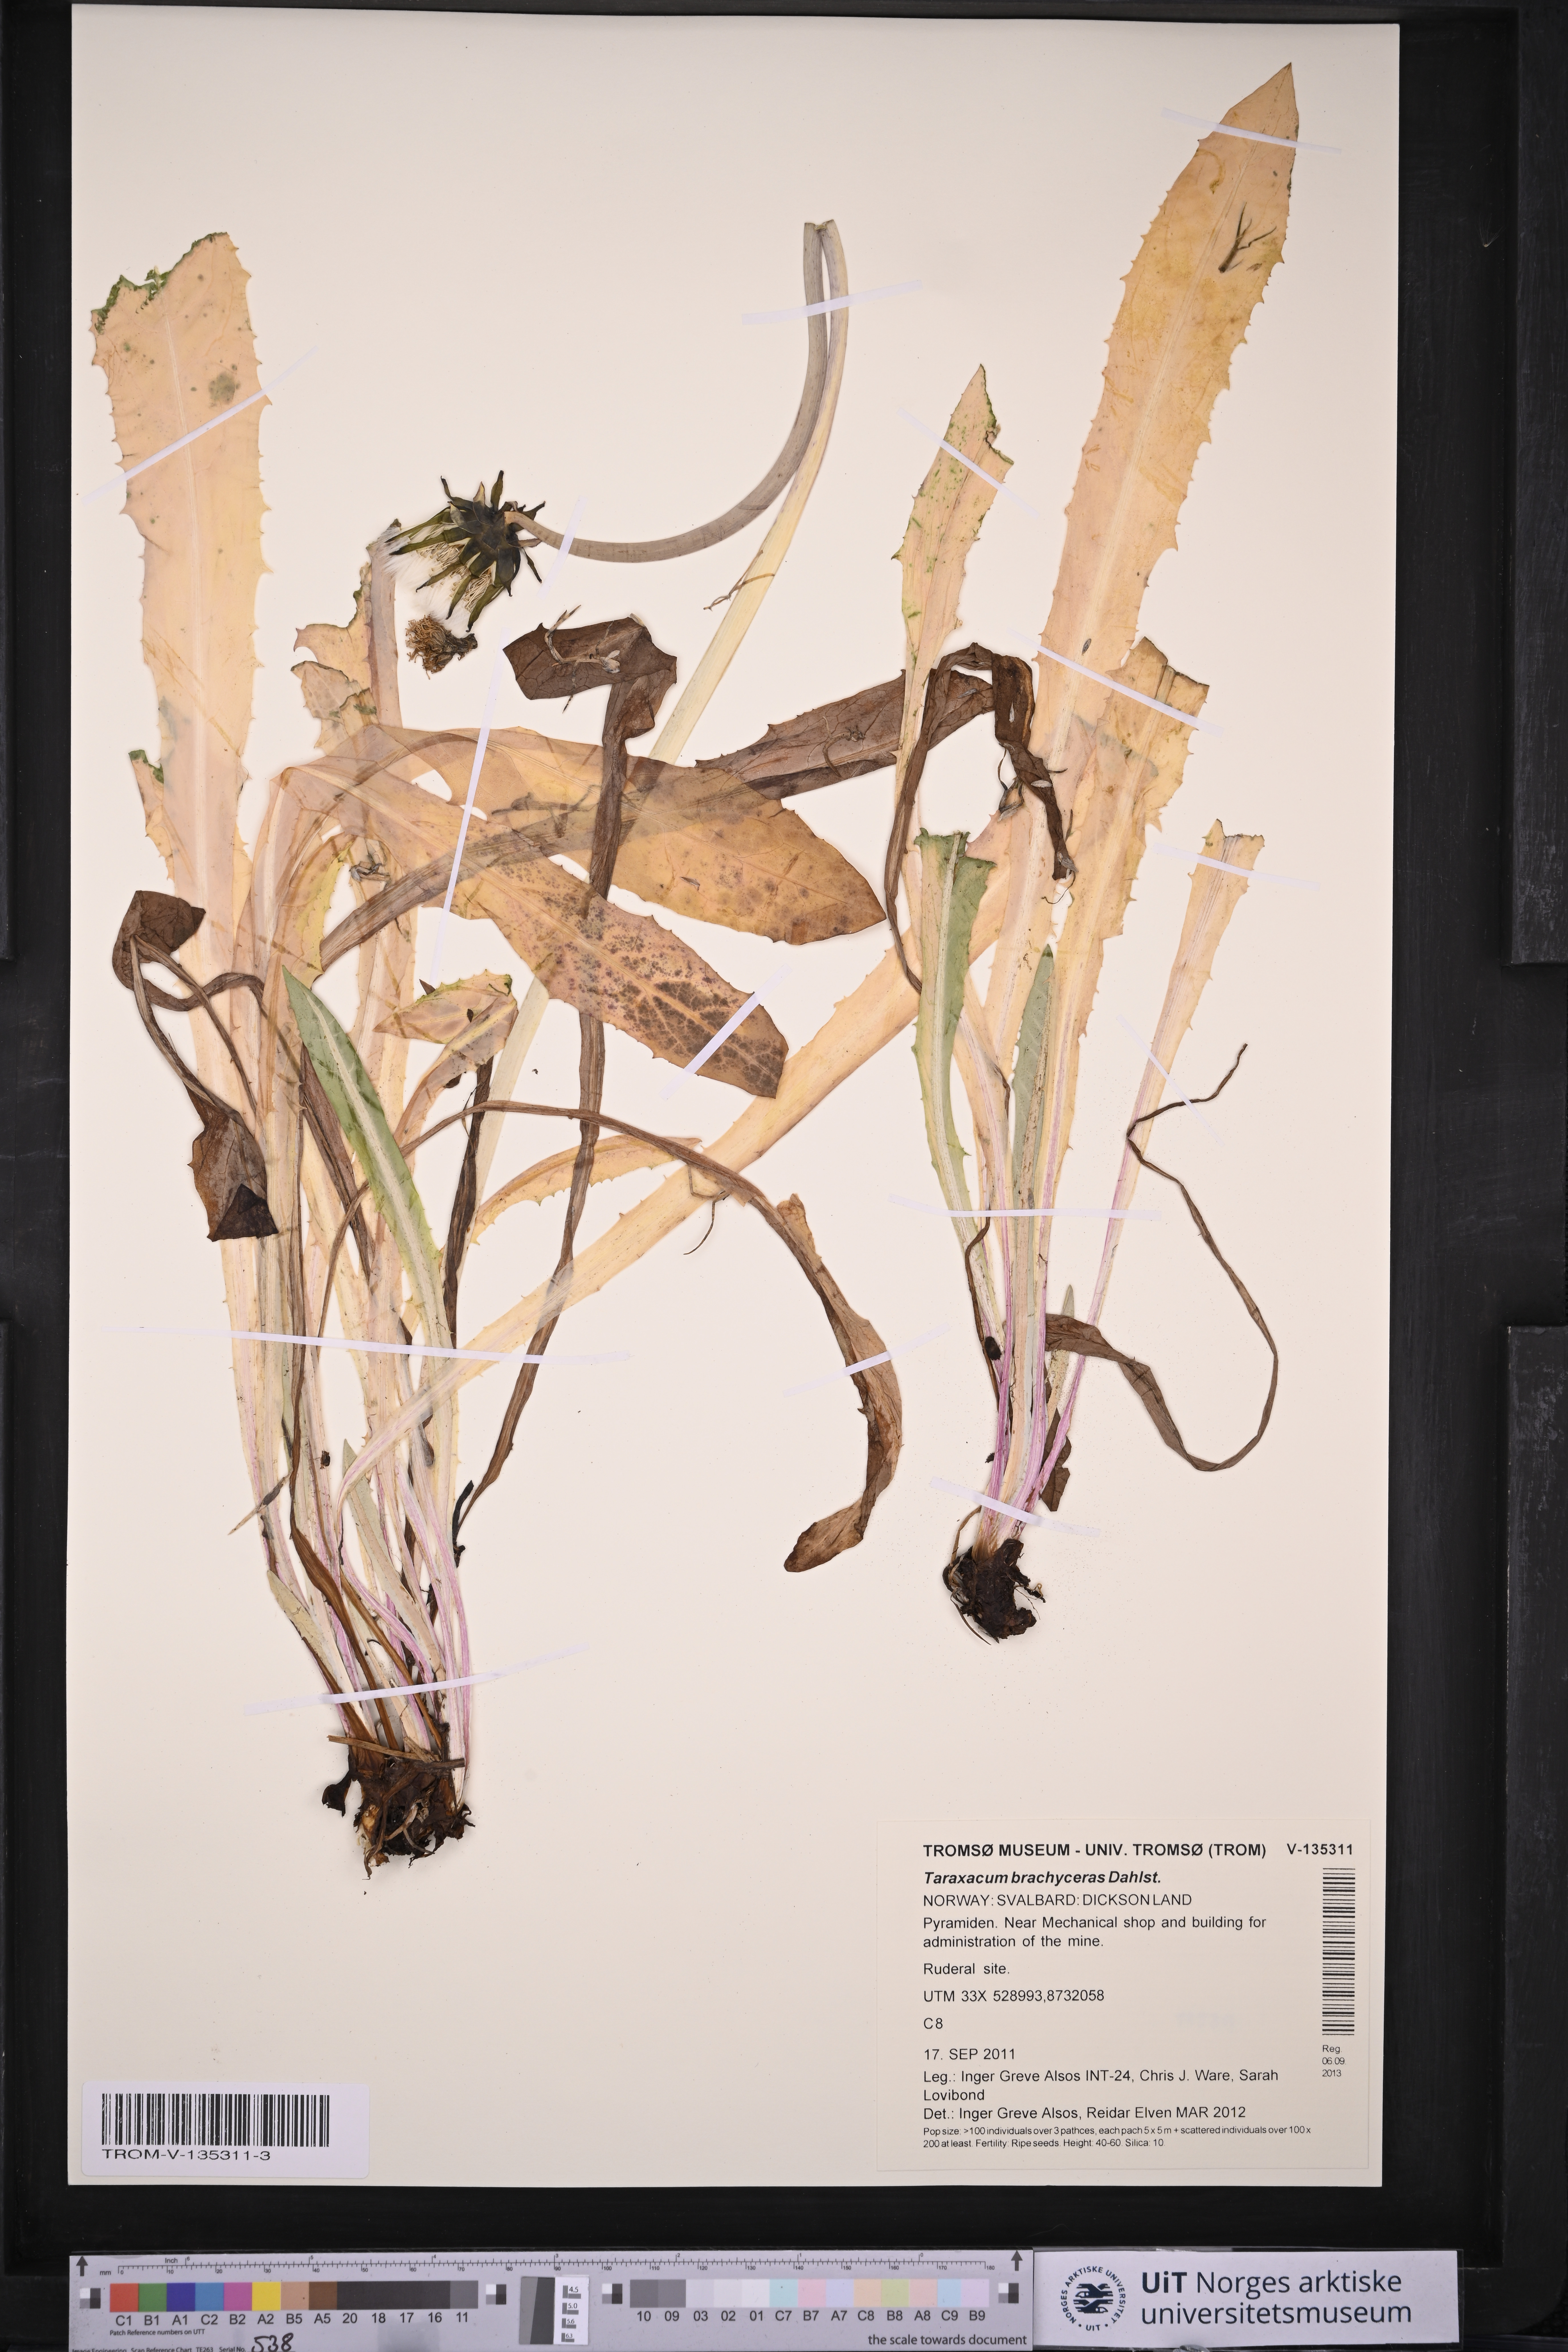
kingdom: Plantae
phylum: Tracheophyta
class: Magnoliopsida
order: Asterales
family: Asteraceae
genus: Taraxacum
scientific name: Taraxacum brachyceras
